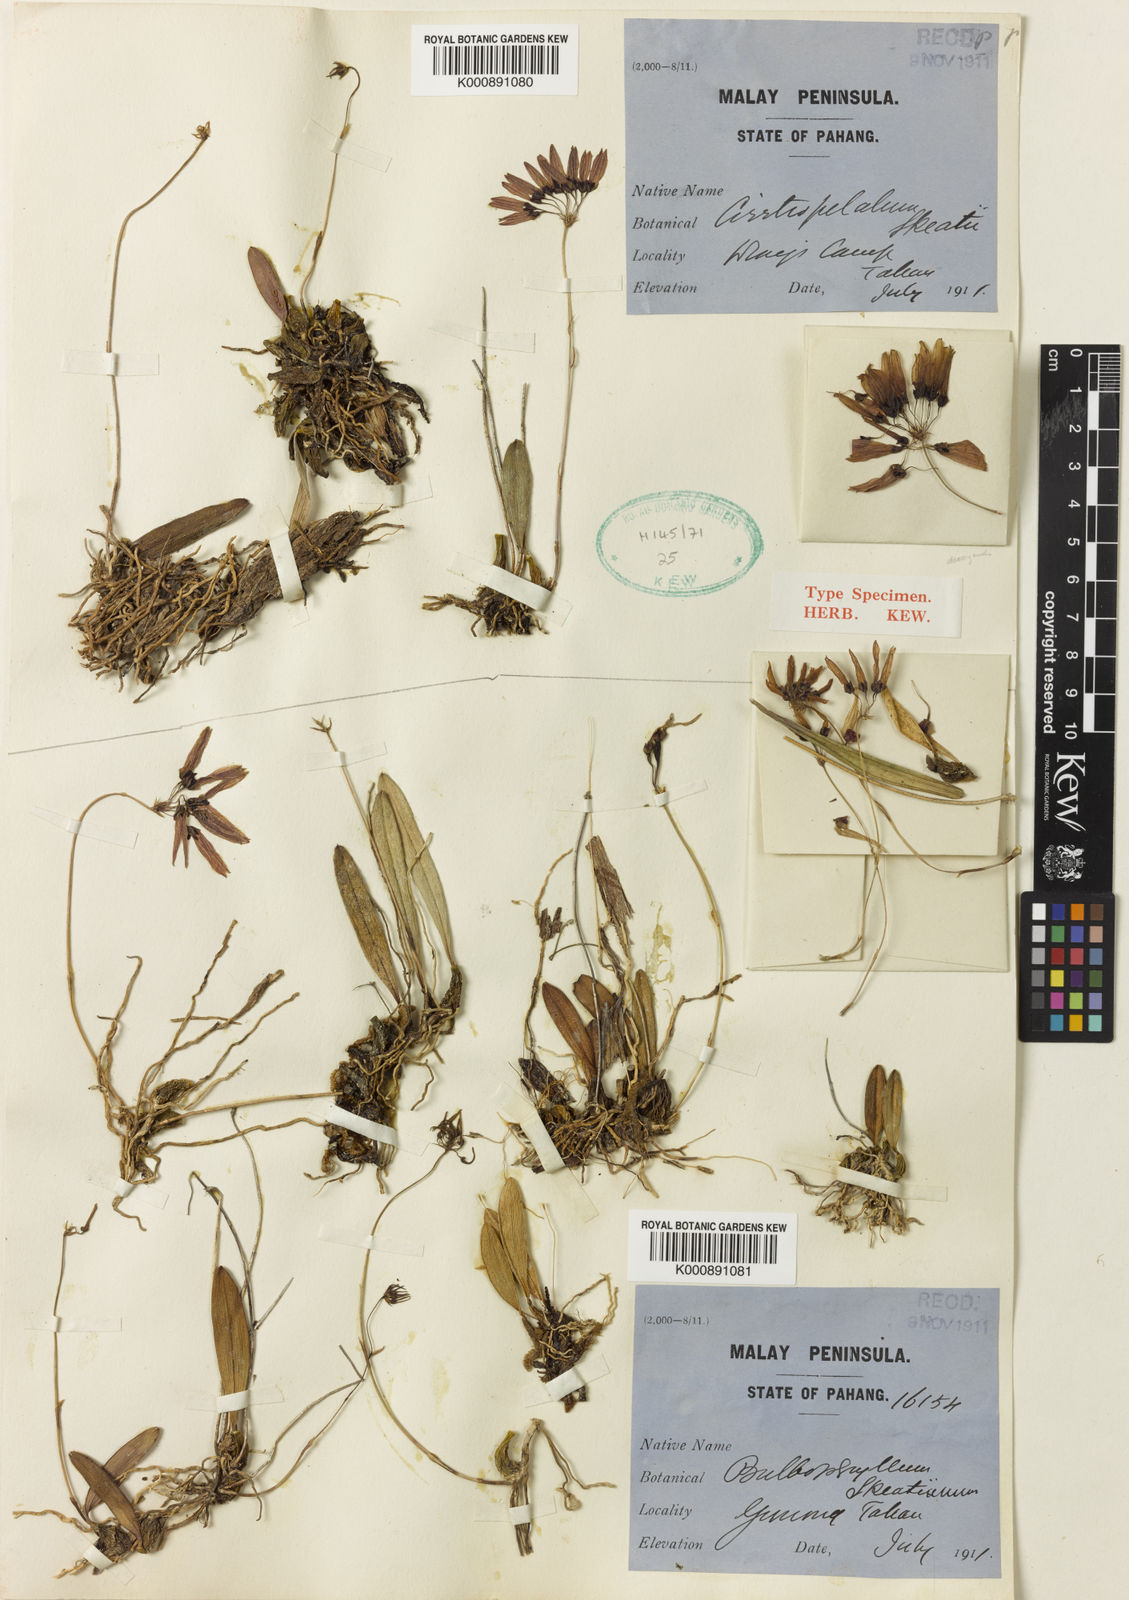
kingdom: Plantae
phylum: Tracheophyta
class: Liliopsida
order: Asparagales
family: Orchidaceae
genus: Bulbophyllum
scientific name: Bulbophyllum skeatianum
